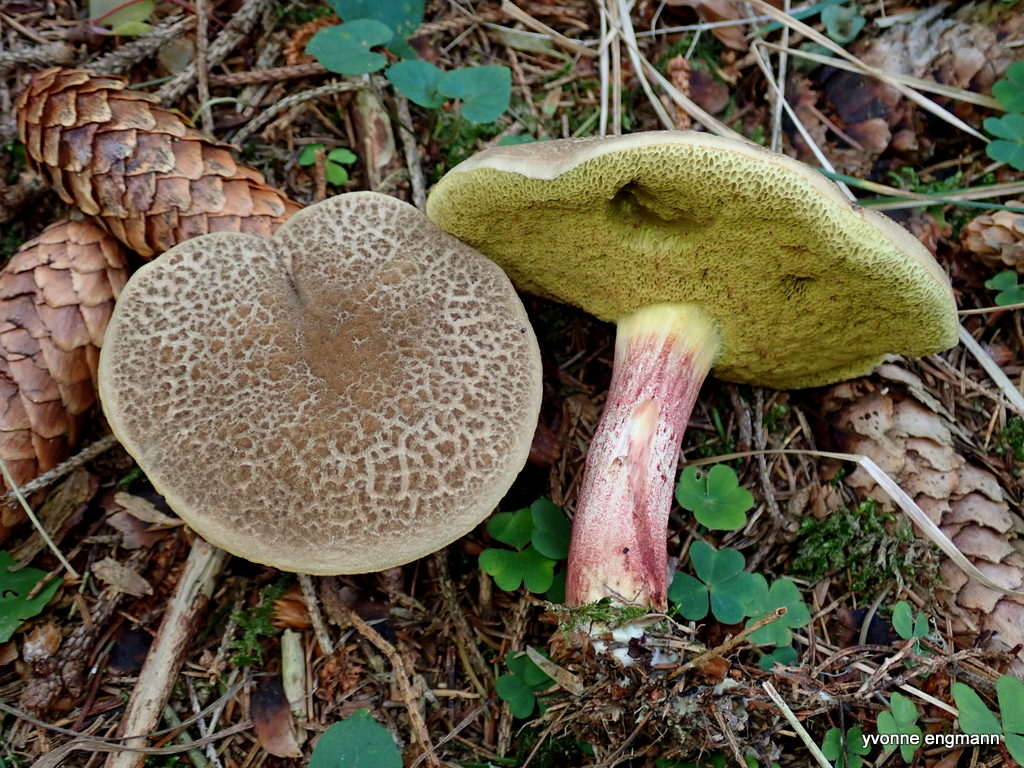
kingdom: Fungi
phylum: Basidiomycota
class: Agaricomycetes
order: Boletales
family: Boletaceae
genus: Xerocomellus
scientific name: Xerocomellus chrysenteron
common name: rødsprukken rørhat
